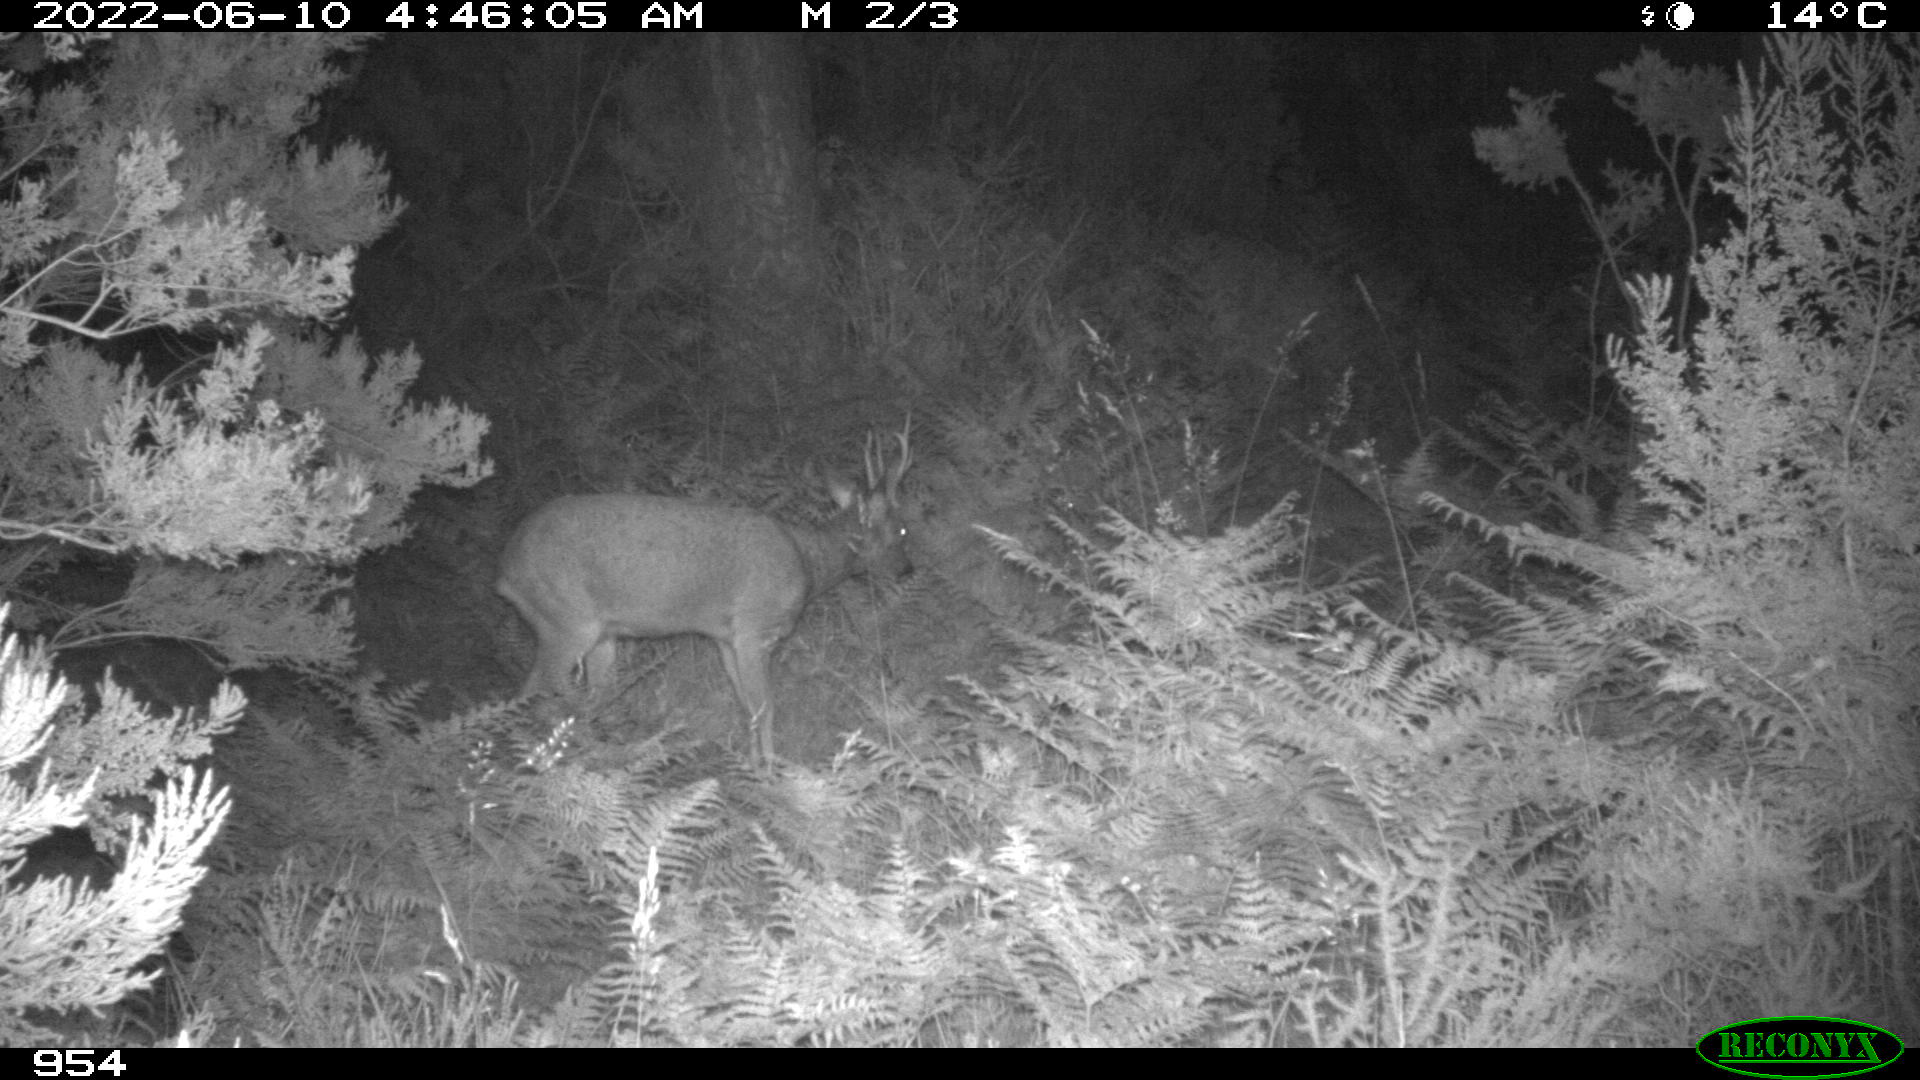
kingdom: Animalia
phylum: Chordata
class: Mammalia
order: Artiodactyla
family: Cervidae
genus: Capreolus
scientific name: Capreolus capreolus
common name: Western roe deer
